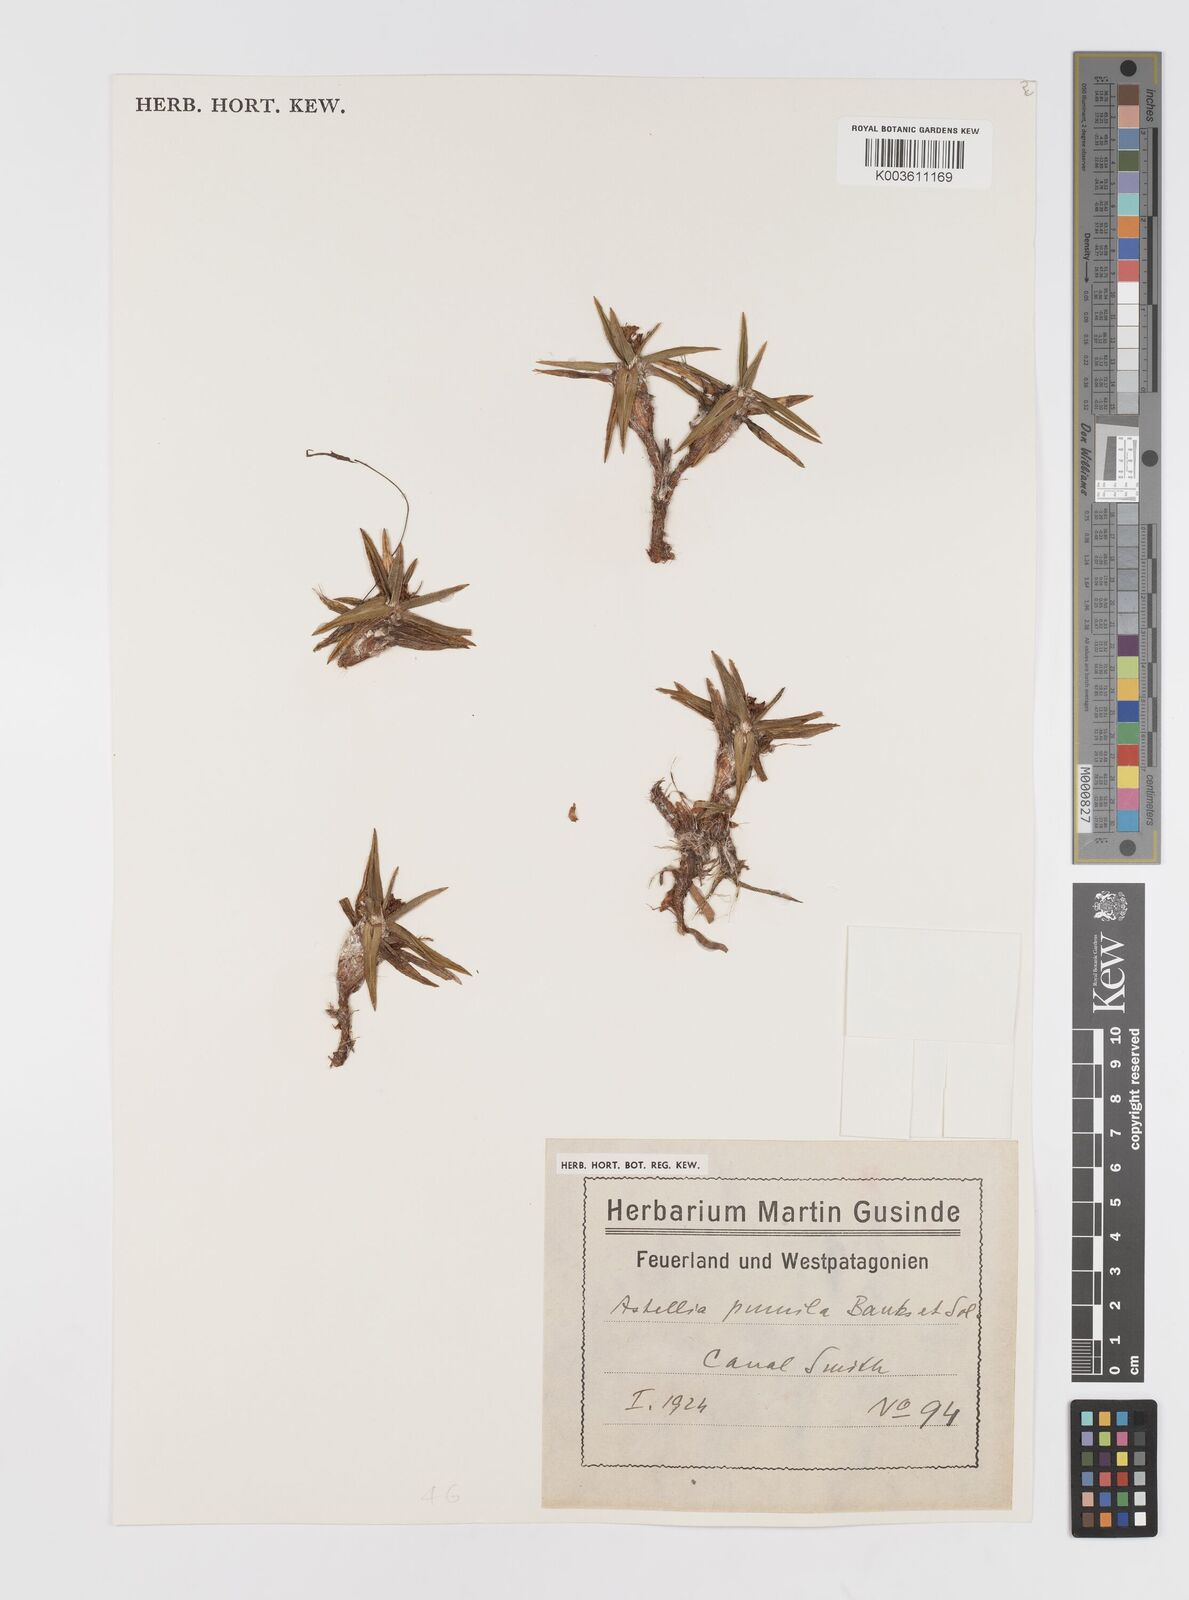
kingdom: Plantae
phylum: Tracheophyta
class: Liliopsida
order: Asparagales
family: Asteliaceae
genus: Astelia
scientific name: Astelia pumila
